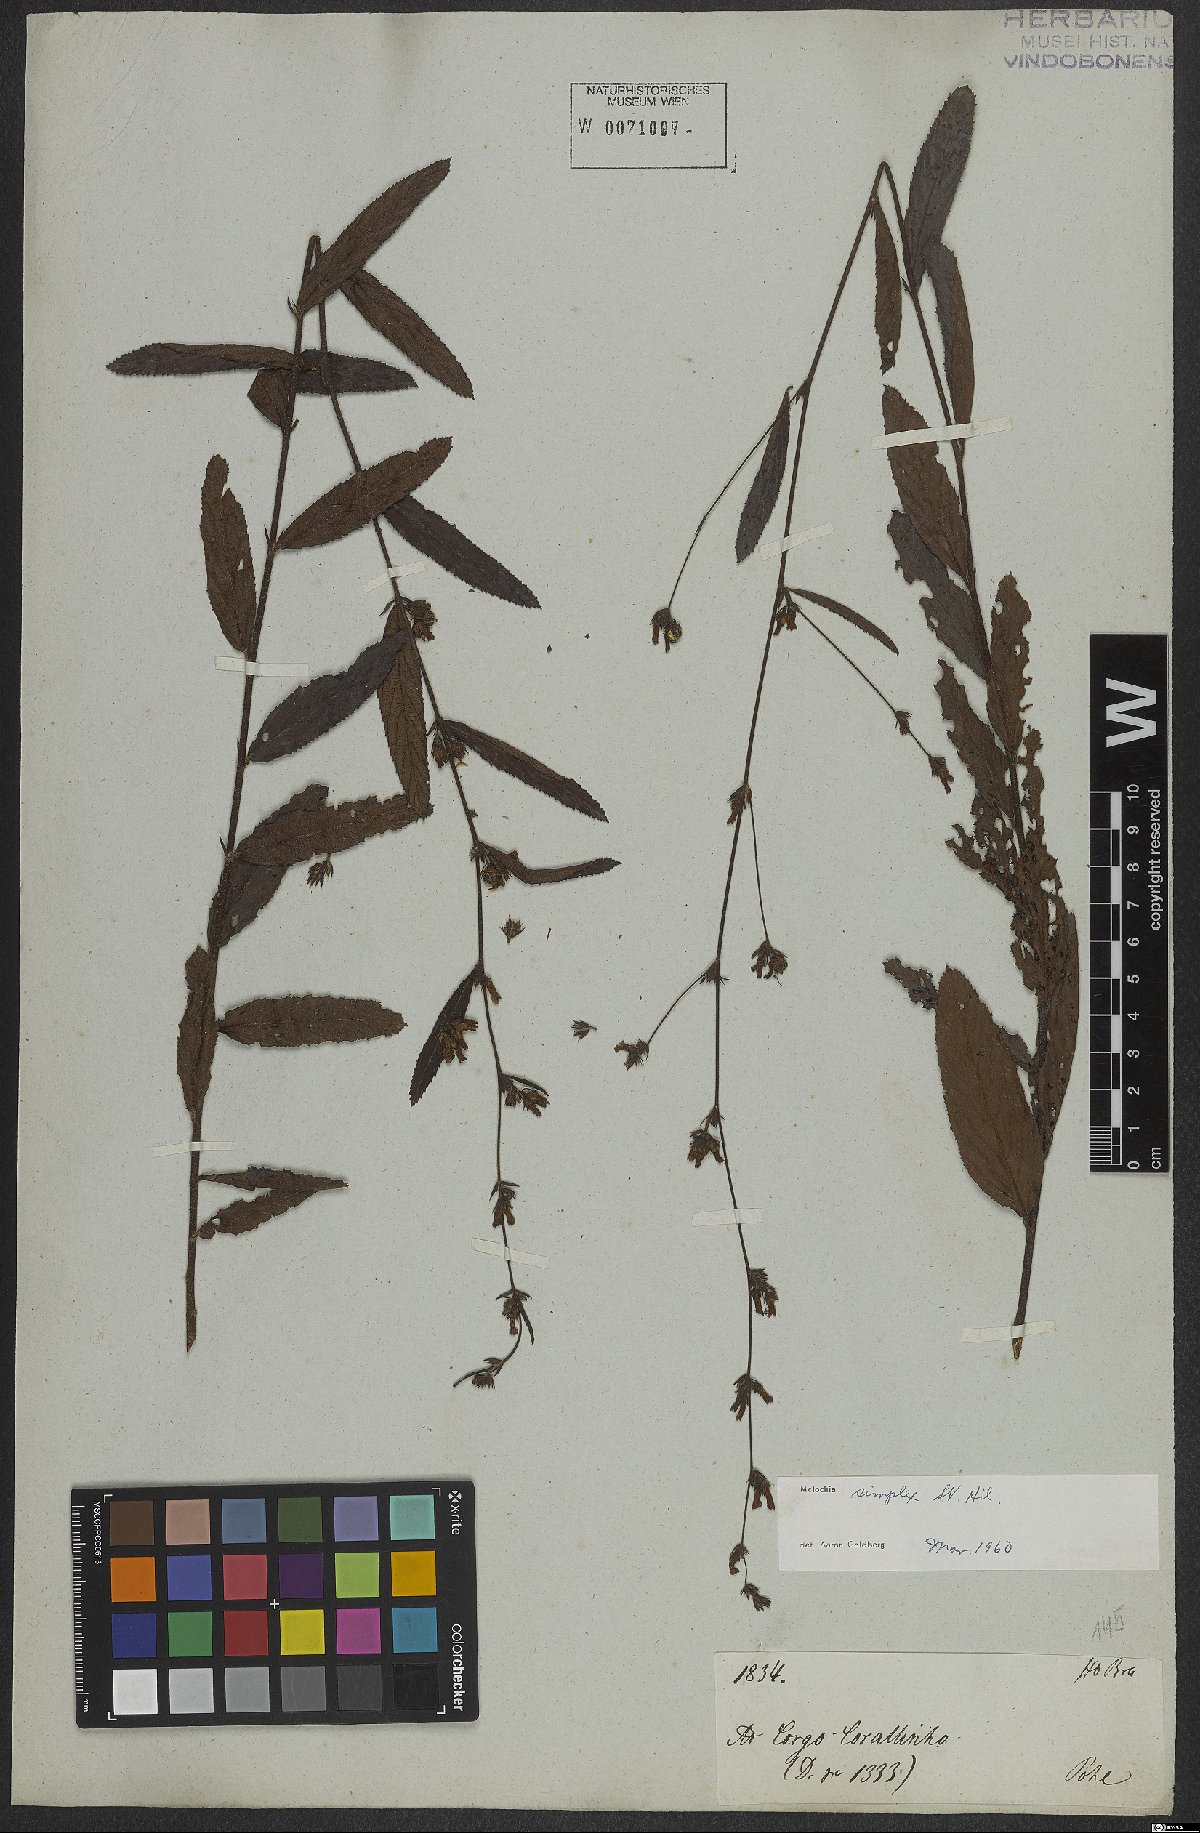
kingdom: Plantae
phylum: Tracheophyta
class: Magnoliopsida
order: Malvales
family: Malvaceae
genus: Melochia
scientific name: Melochia simplex
